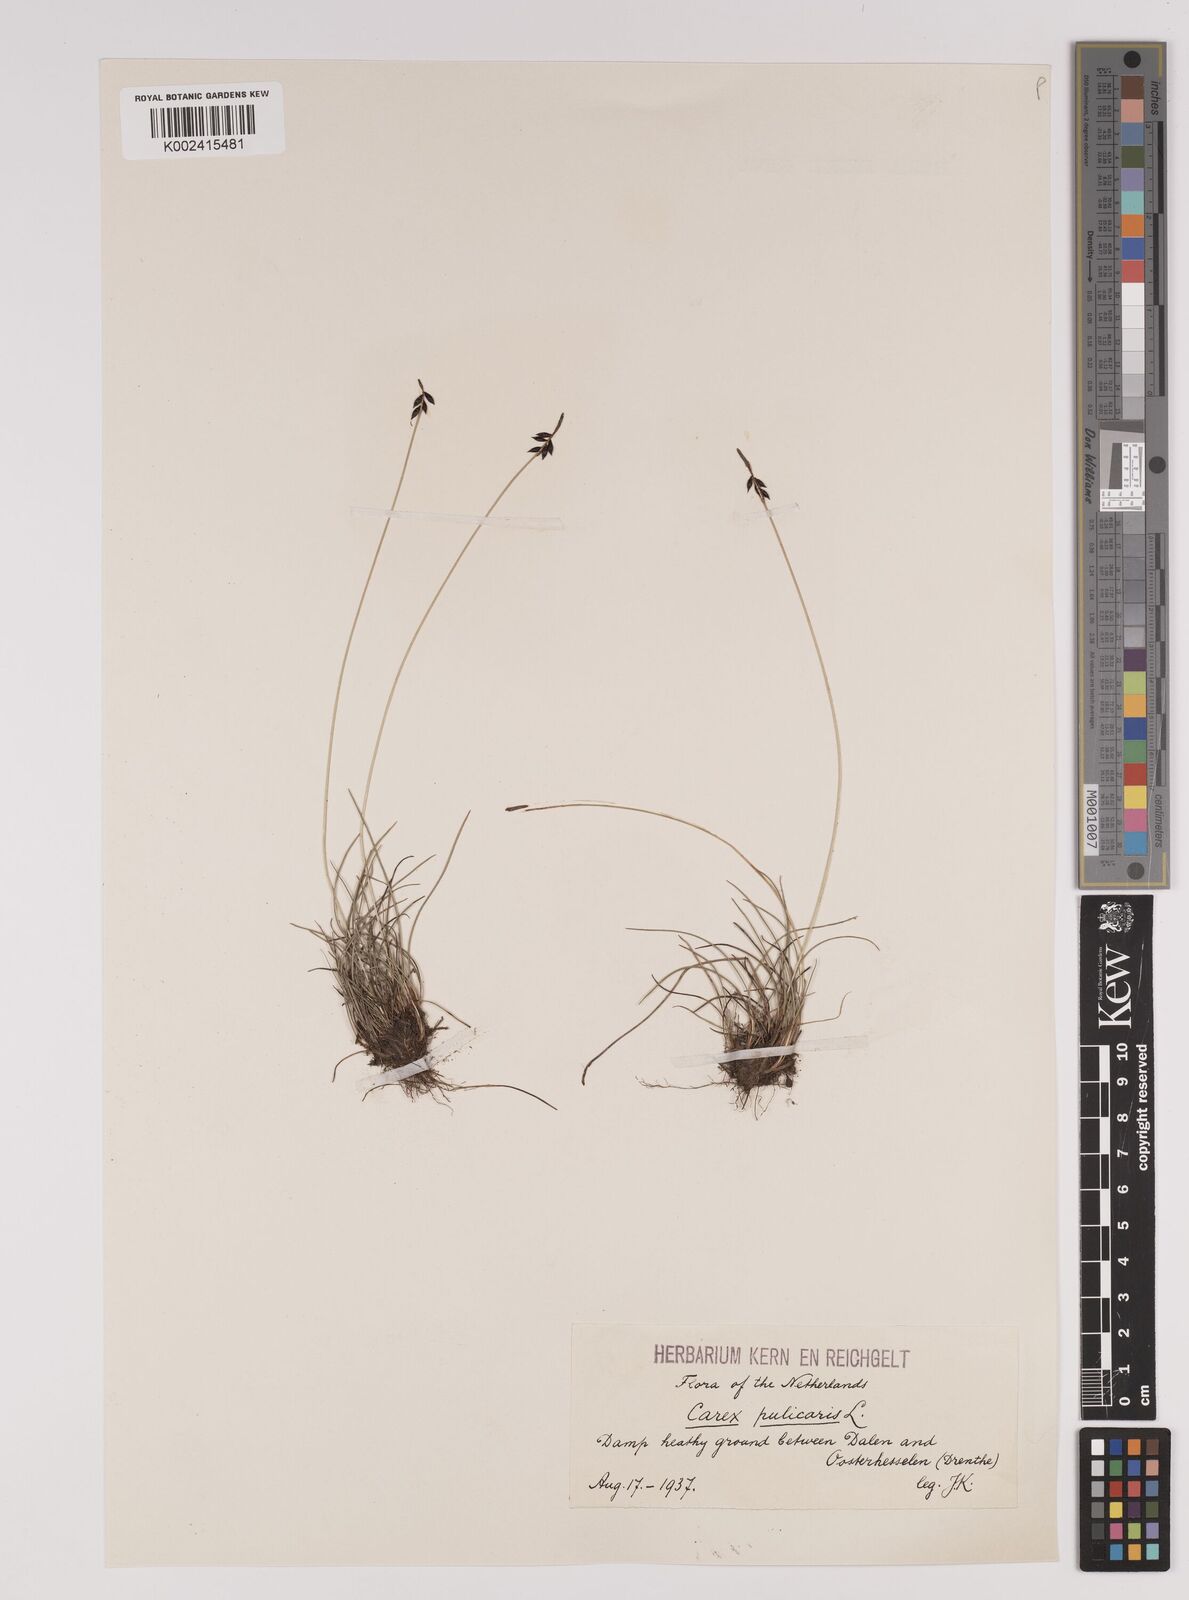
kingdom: Plantae
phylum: Tracheophyta
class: Liliopsida
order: Poales
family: Cyperaceae
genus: Carex
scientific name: Carex pulicaris
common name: Flea sedge
